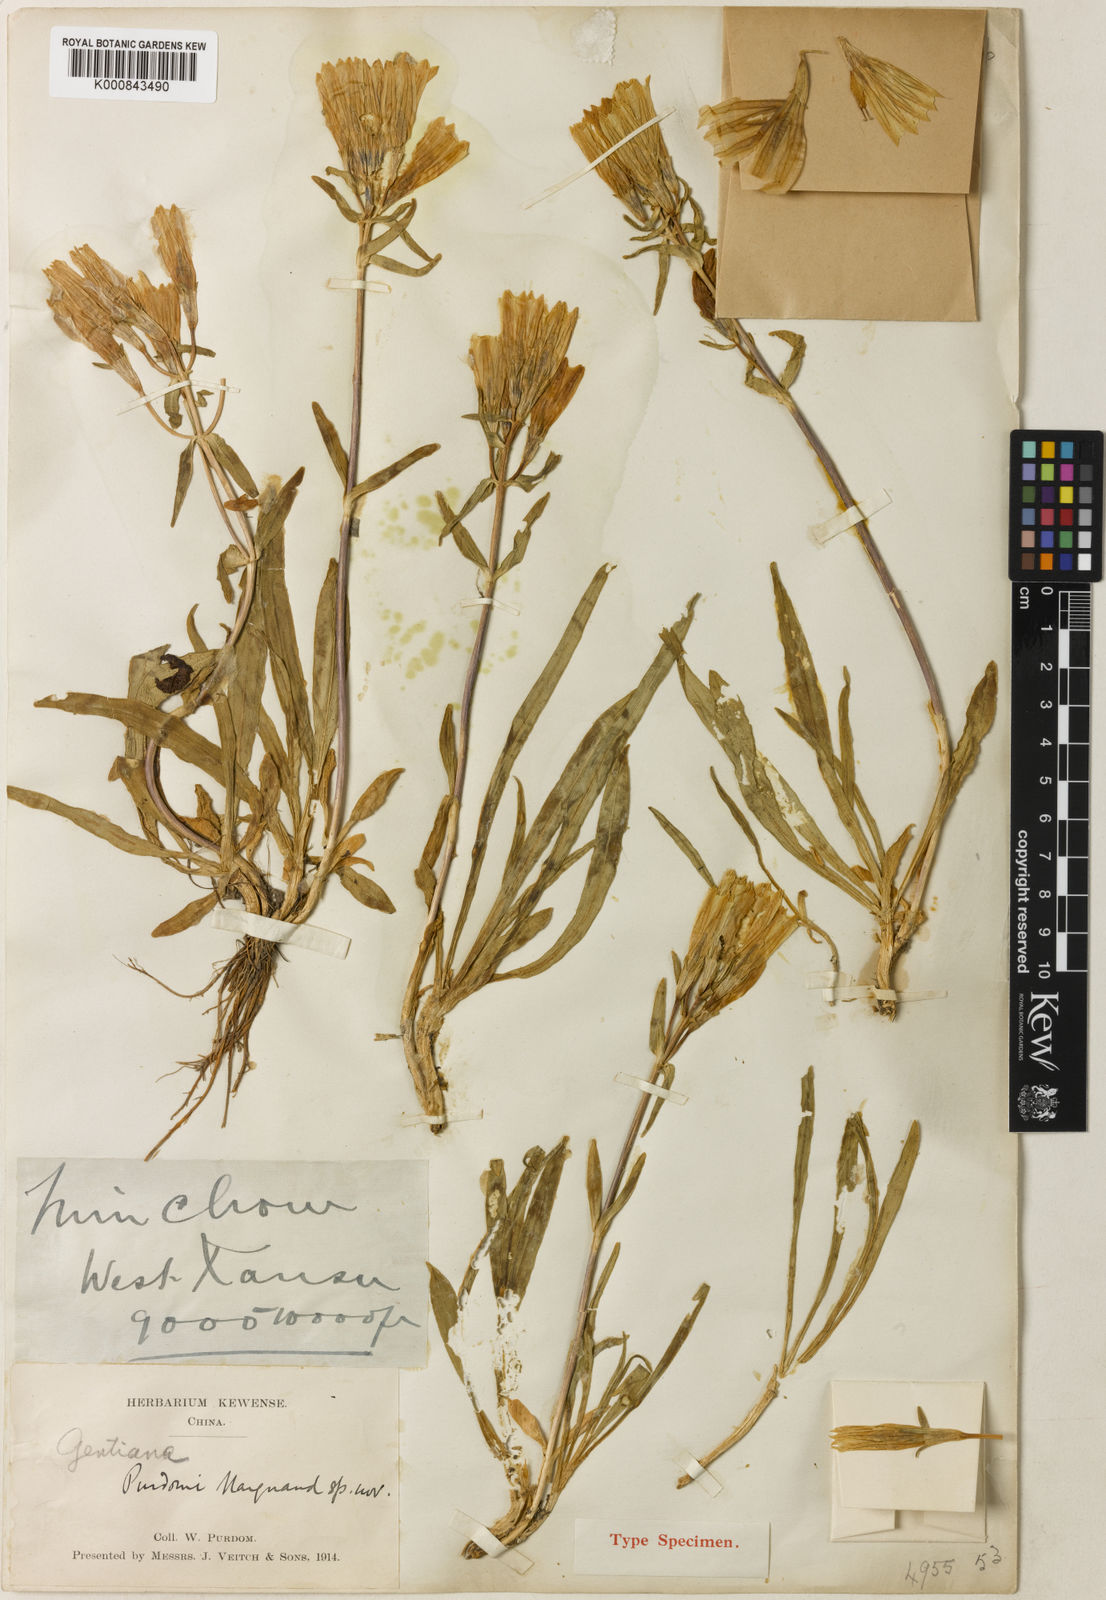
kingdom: Plantae
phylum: Tracheophyta
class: Magnoliopsida
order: Gentianales
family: Gentianaceae
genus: Gentiana
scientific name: Gentiana algida
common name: Arctic gentian
